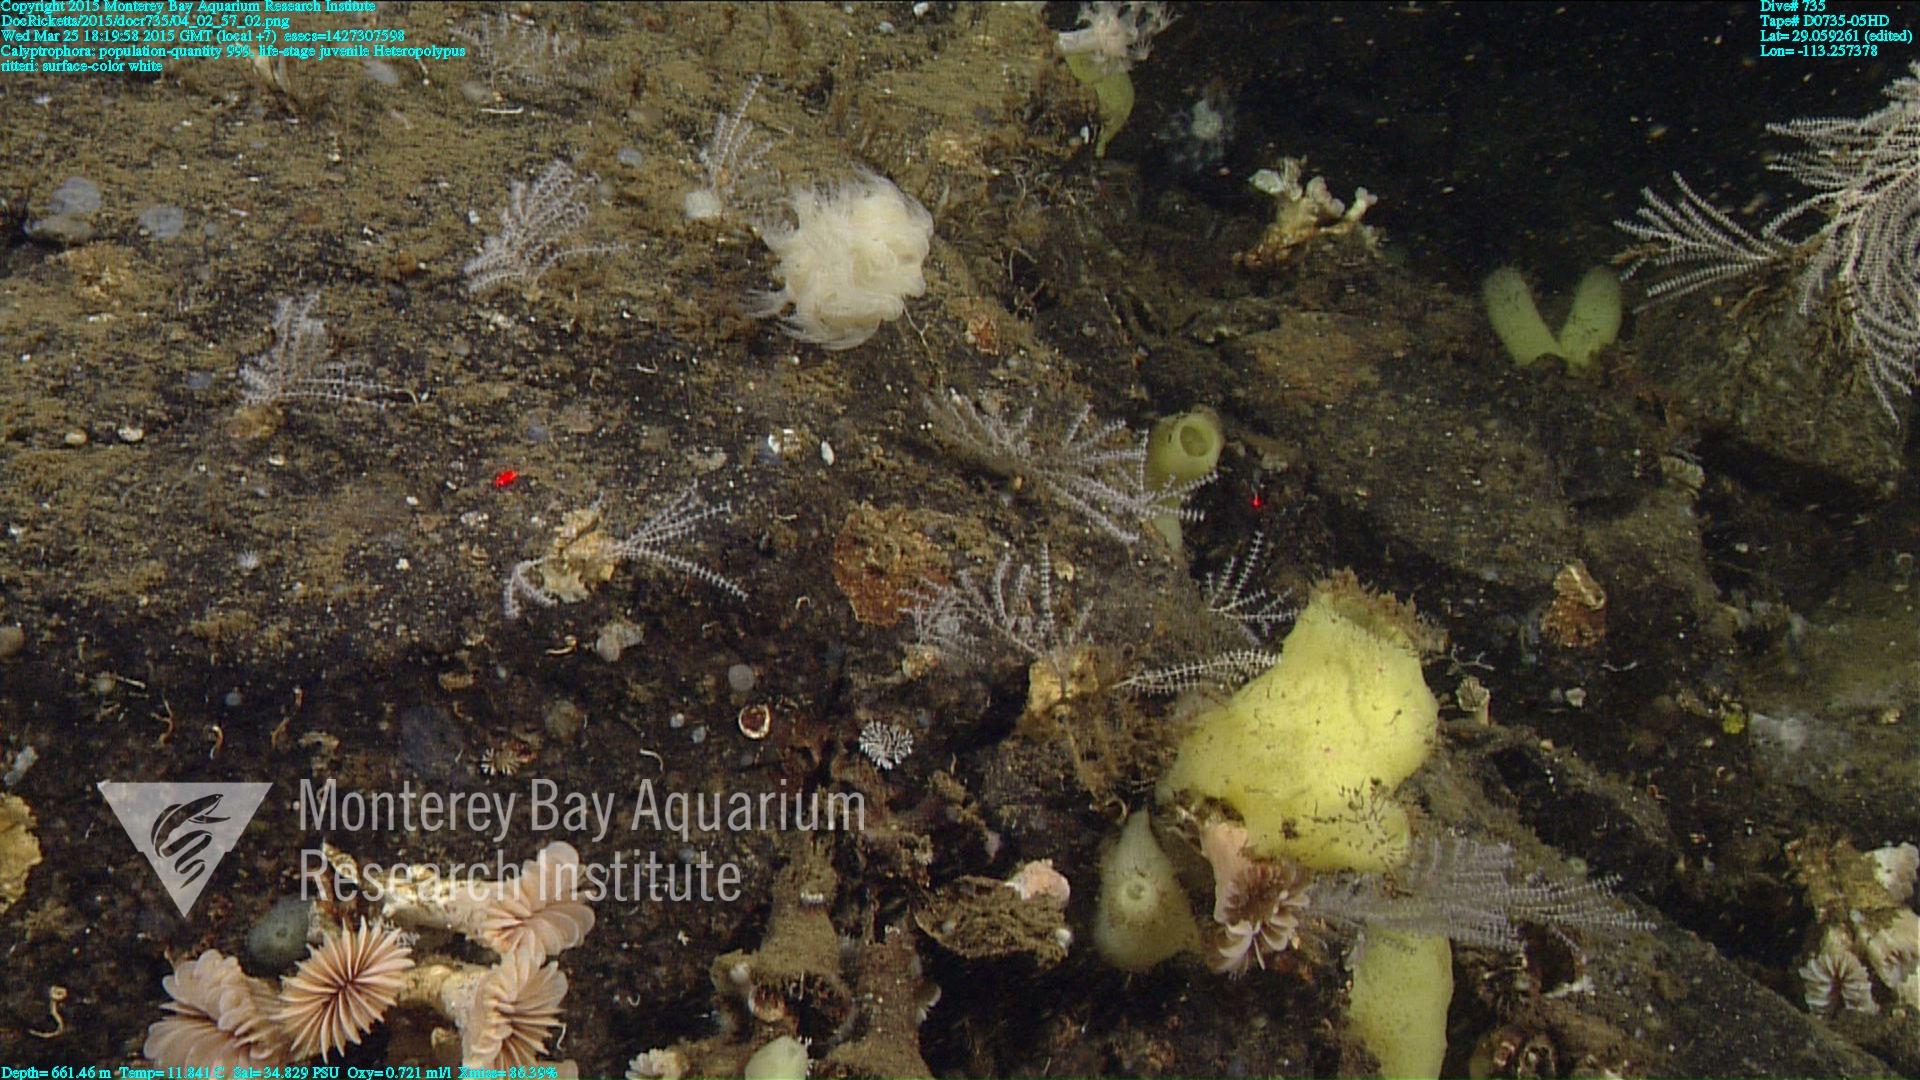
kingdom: Animalia
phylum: Cnidaria
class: Anthozoa
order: Scleralcyonacea
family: Coralliidae
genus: Heteropolypus
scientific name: Heteropolypus ritteri
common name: Ritter's soft coral
